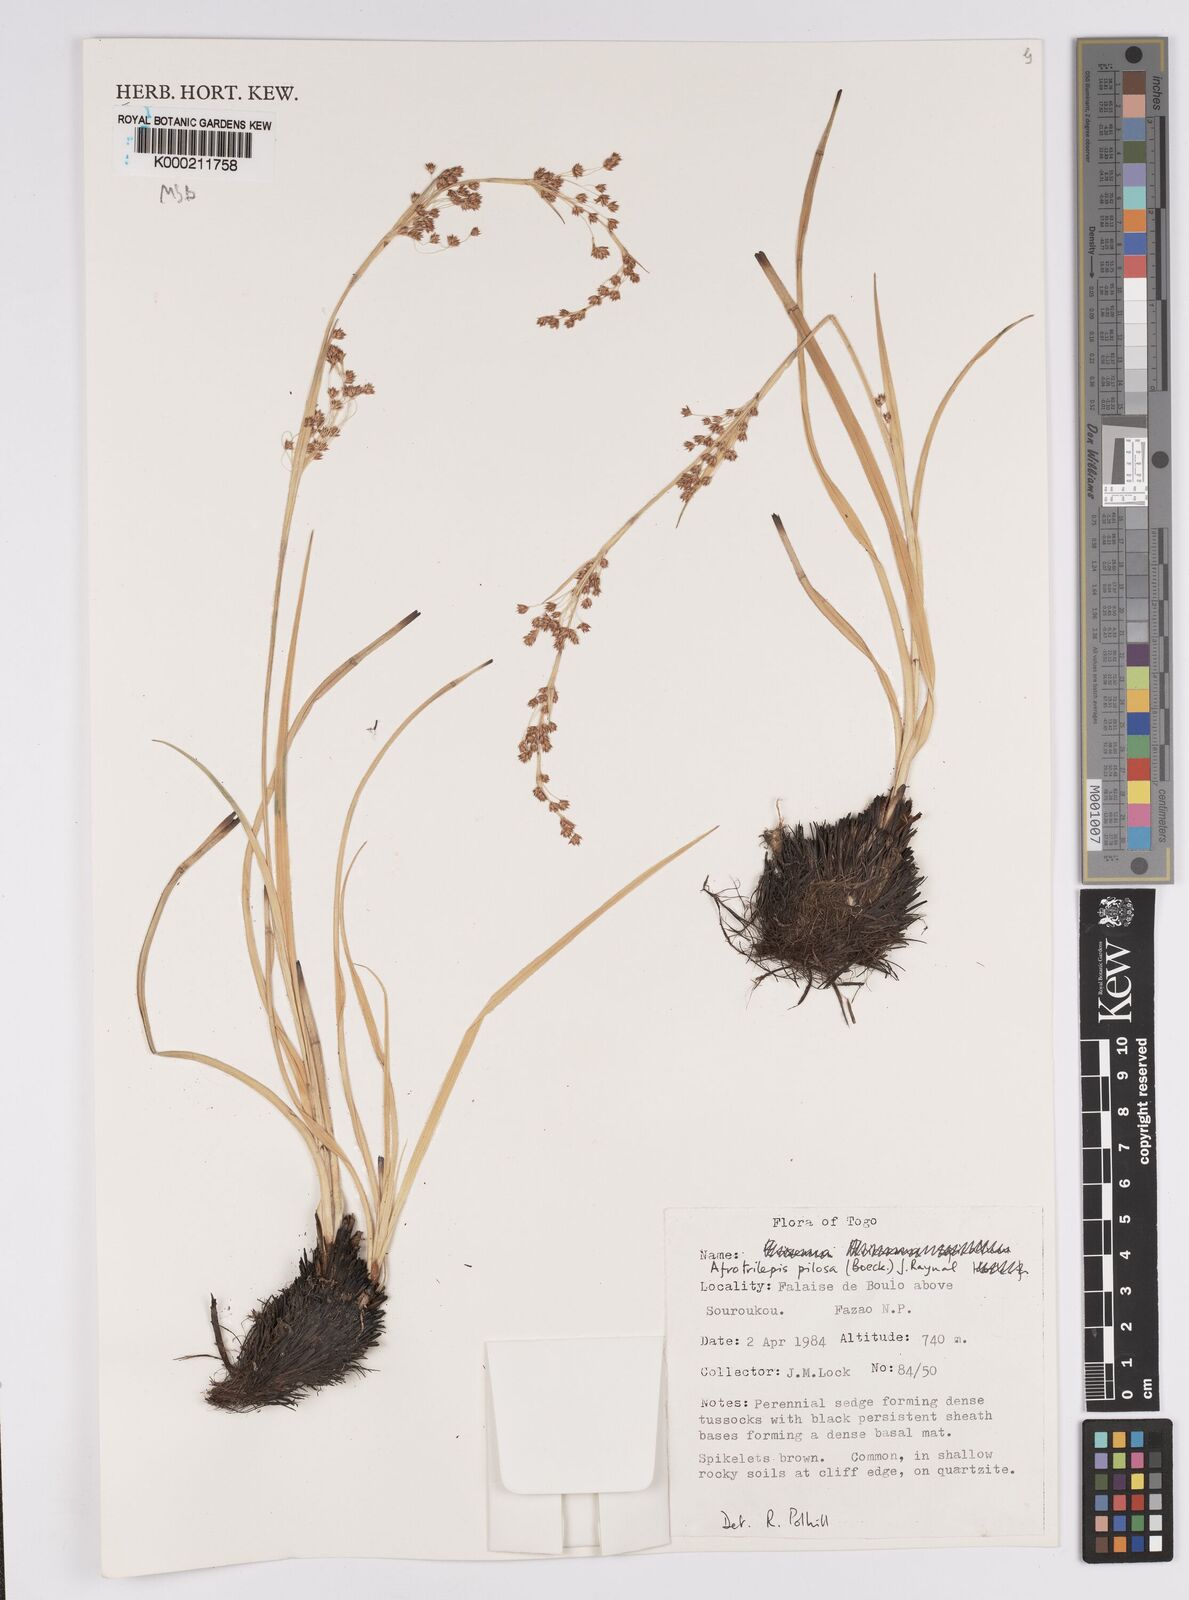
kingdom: Plantae
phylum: Tracheophyta
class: Liliopsida
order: Poales
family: Cyperaceae
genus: Afrotrilepis
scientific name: Afrotrilepis pilosa
